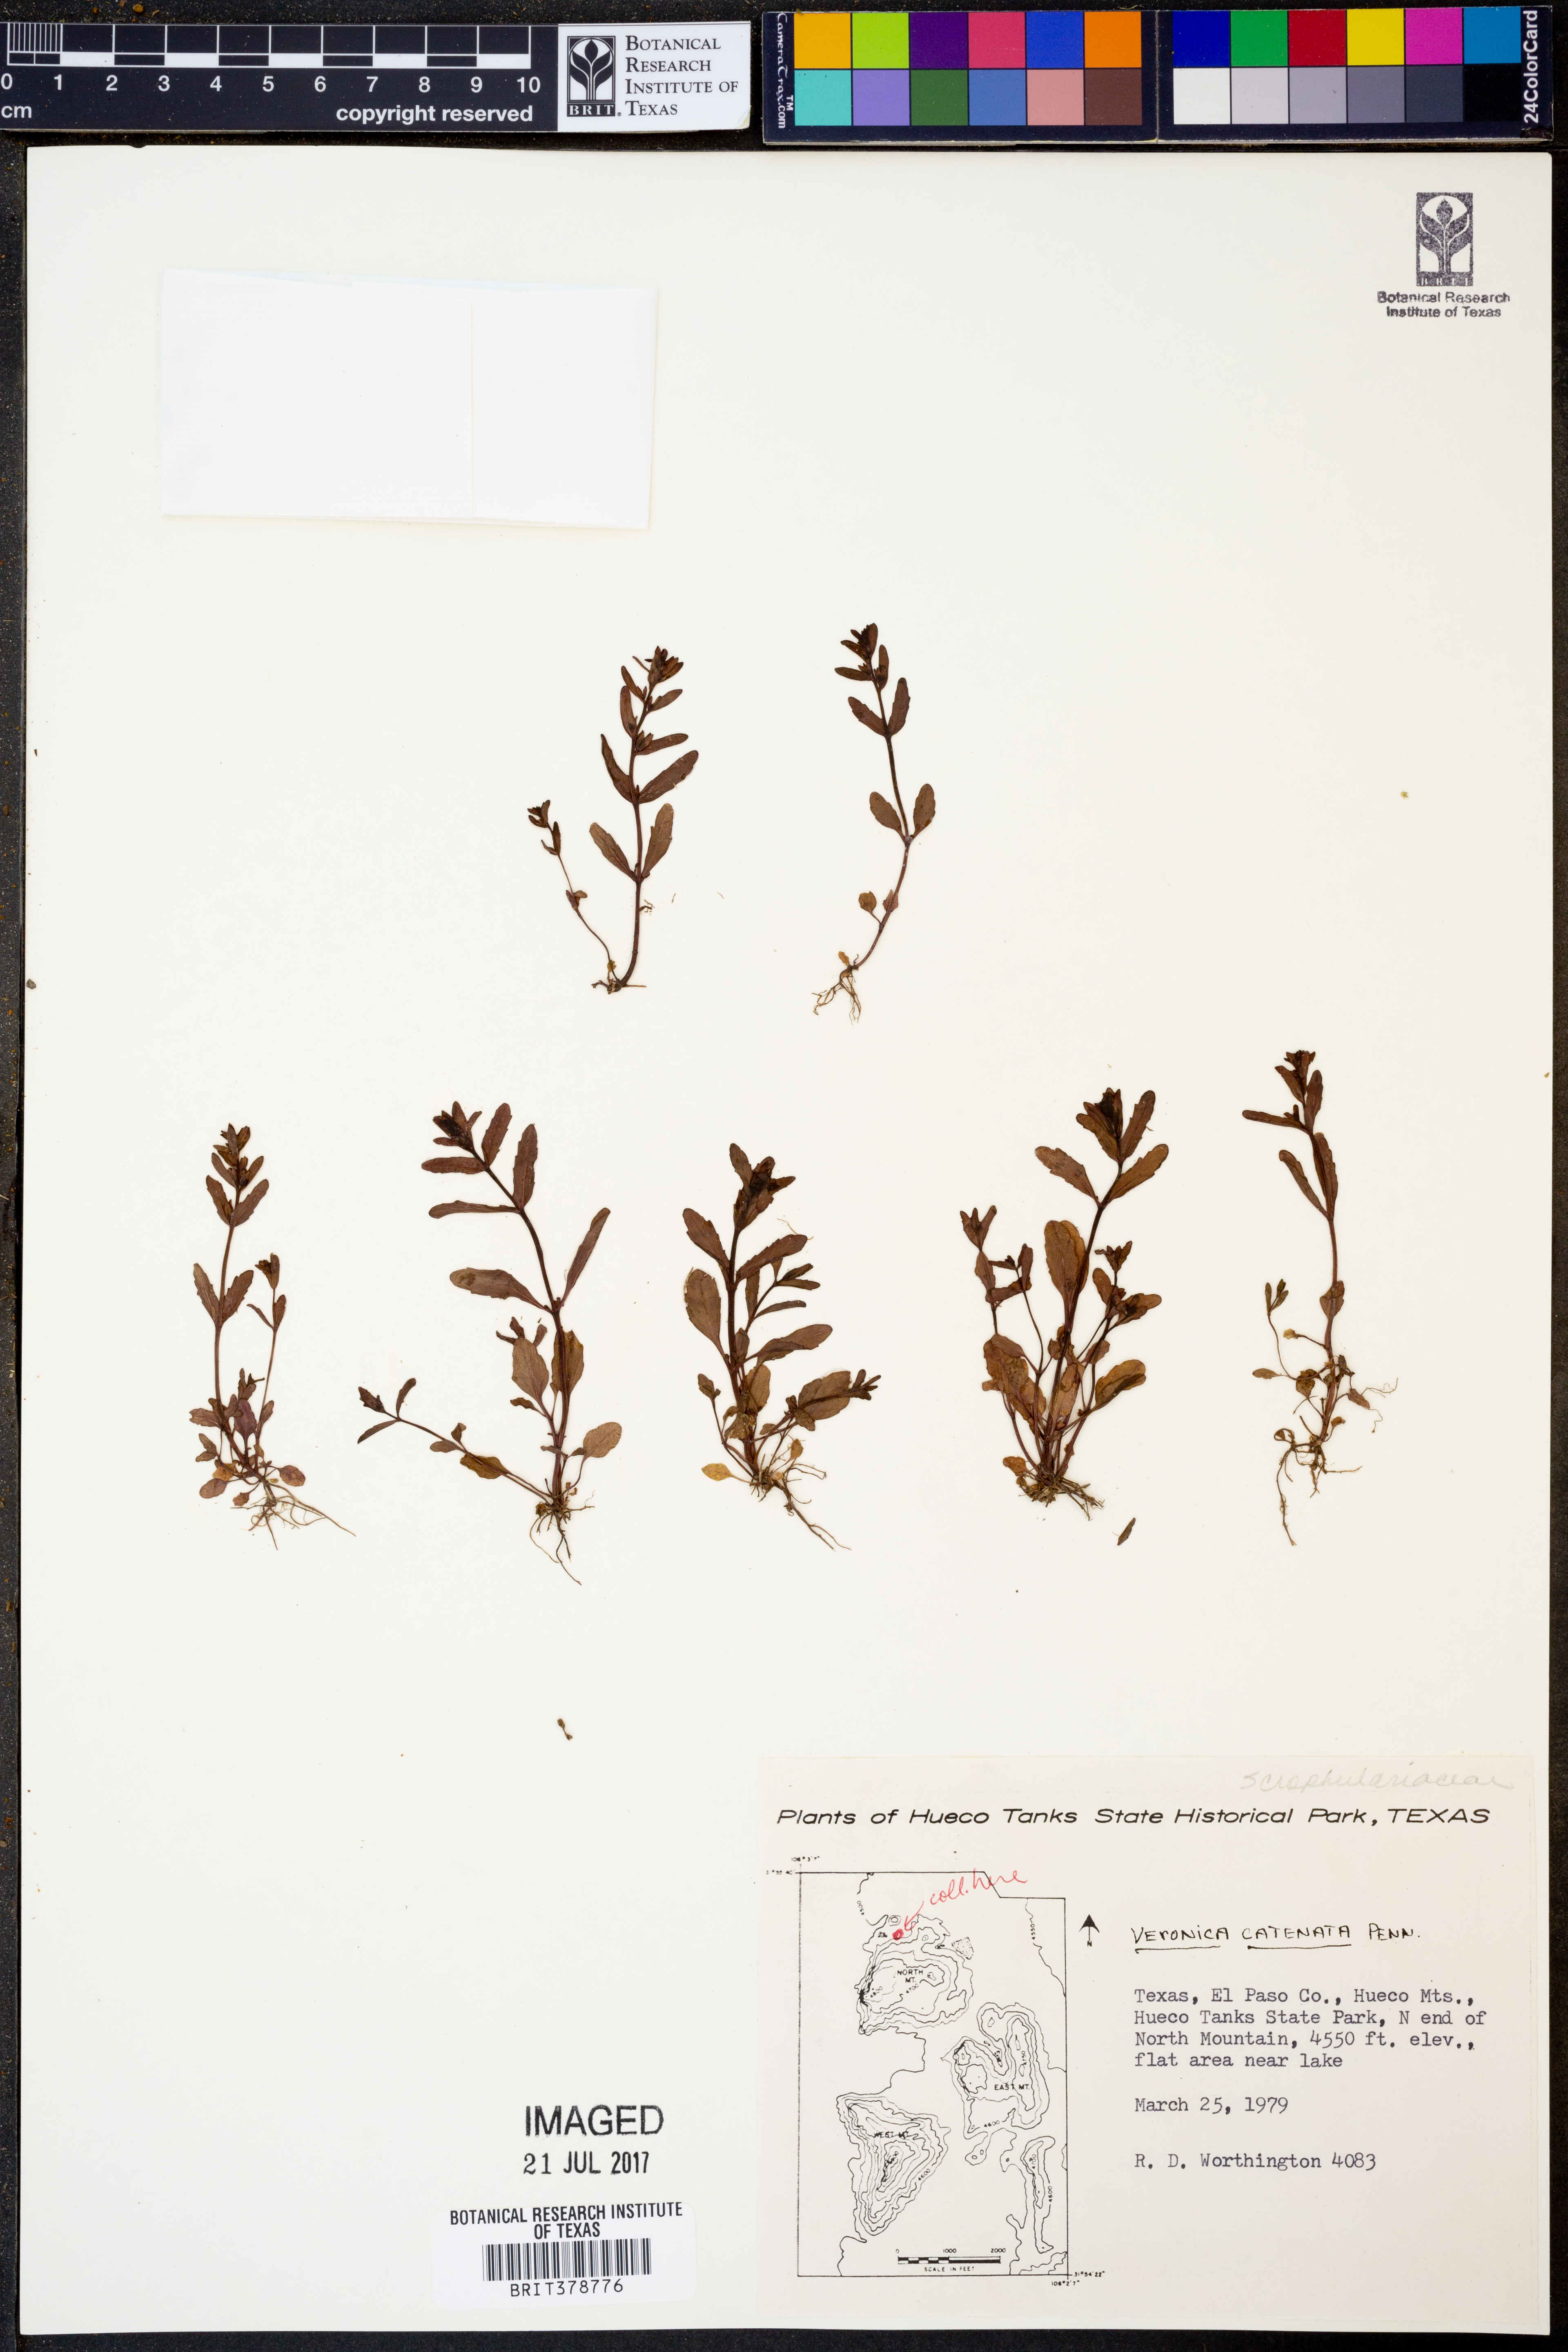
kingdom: Plantae
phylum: Tracheophyta
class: Magnoliopsida
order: Lamiales
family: Plantaginaceae
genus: Veronica
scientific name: Veronica catenata
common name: Pink water-speedwell
